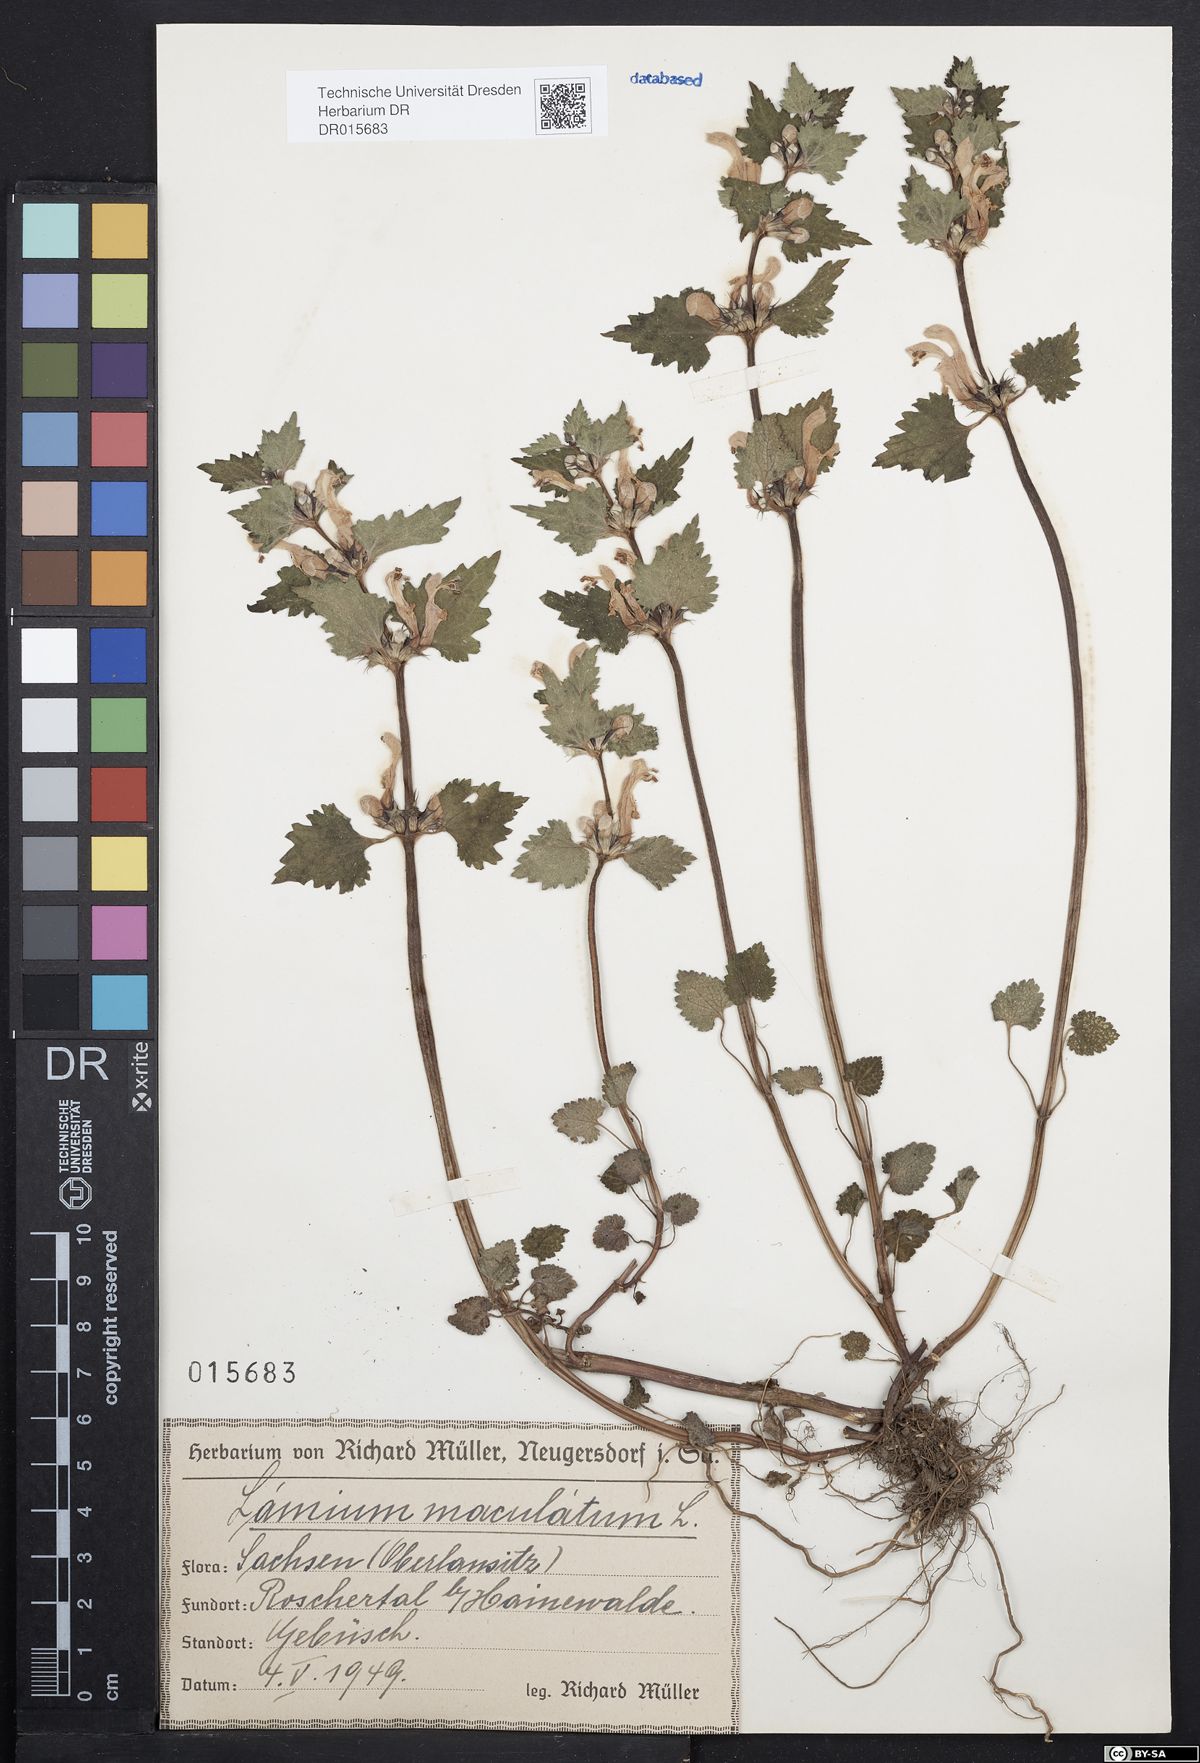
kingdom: Plantae
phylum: Tracheophyta
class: Magnoliopsida
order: Lamiales
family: Lamiaceae
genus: Lamium
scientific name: Lamium maculatum
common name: Spotted dead-nettle
